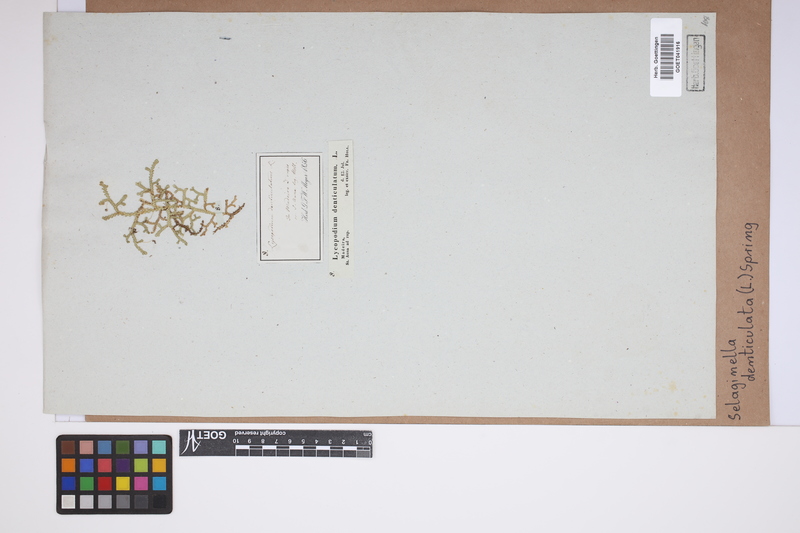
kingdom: Plantae
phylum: Tracheophyta
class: Lycopodiopsida
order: Selaginellales
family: Selaginellaceae
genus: Selaginella
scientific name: Selaginella denticulata
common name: Toothed-leaved clubmoss
